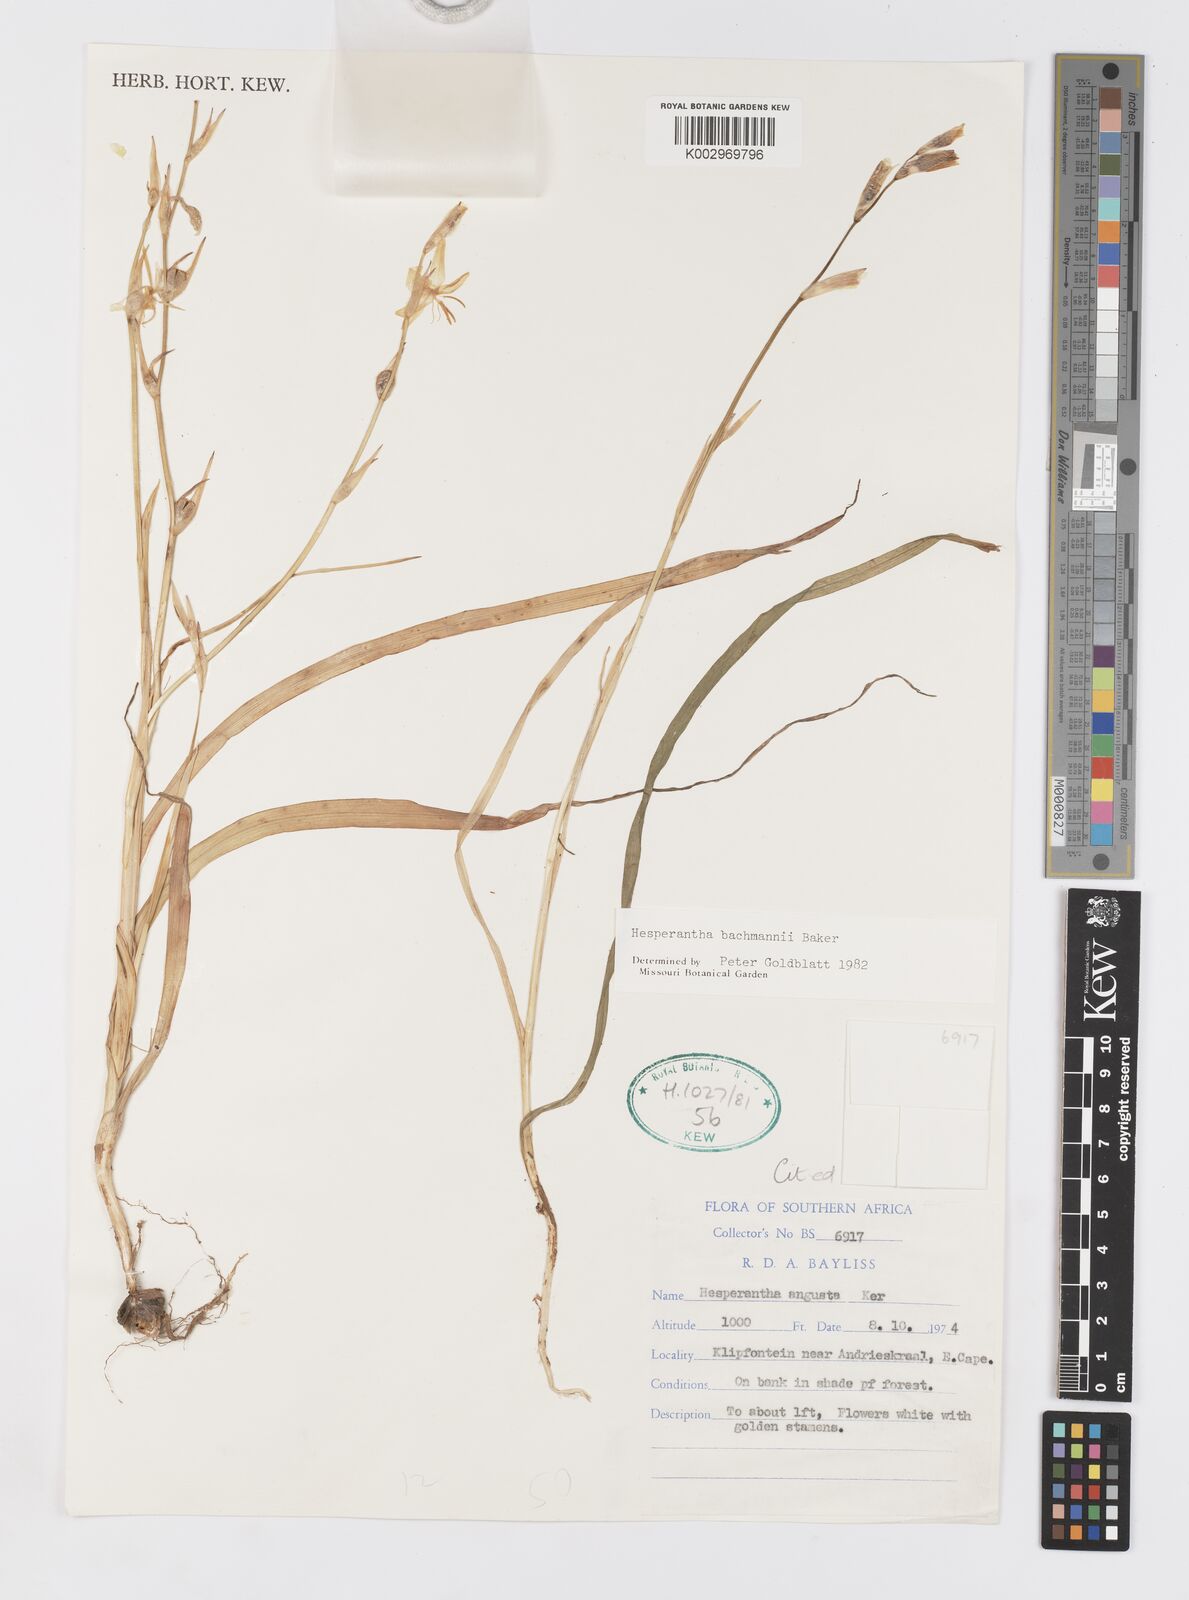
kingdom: Plantae
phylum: Tracheophyta
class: Liliopsida
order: Asparagales
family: Iridaceae
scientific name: Iridaceae
